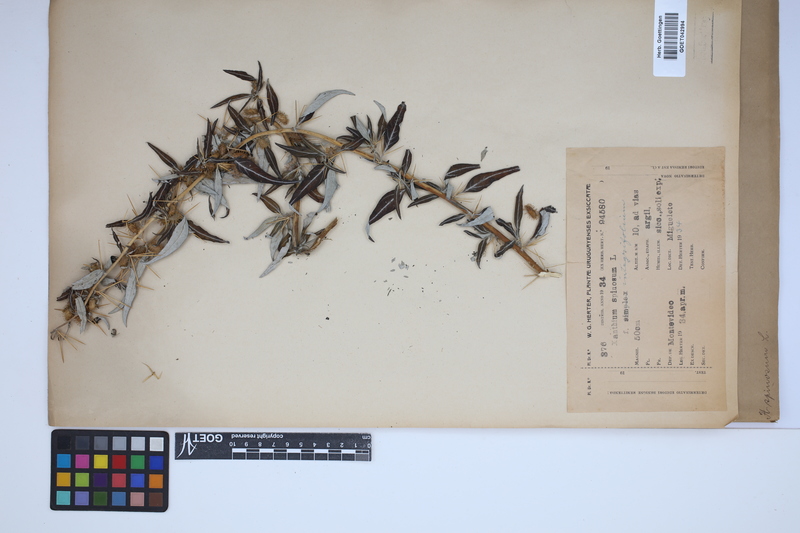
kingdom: Plantae
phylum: Tracheophyta
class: Magnoliopsida
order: Asterales
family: Asteraceae
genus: Xanthium
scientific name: Xanthium spinosum
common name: Spiny cocklebur
